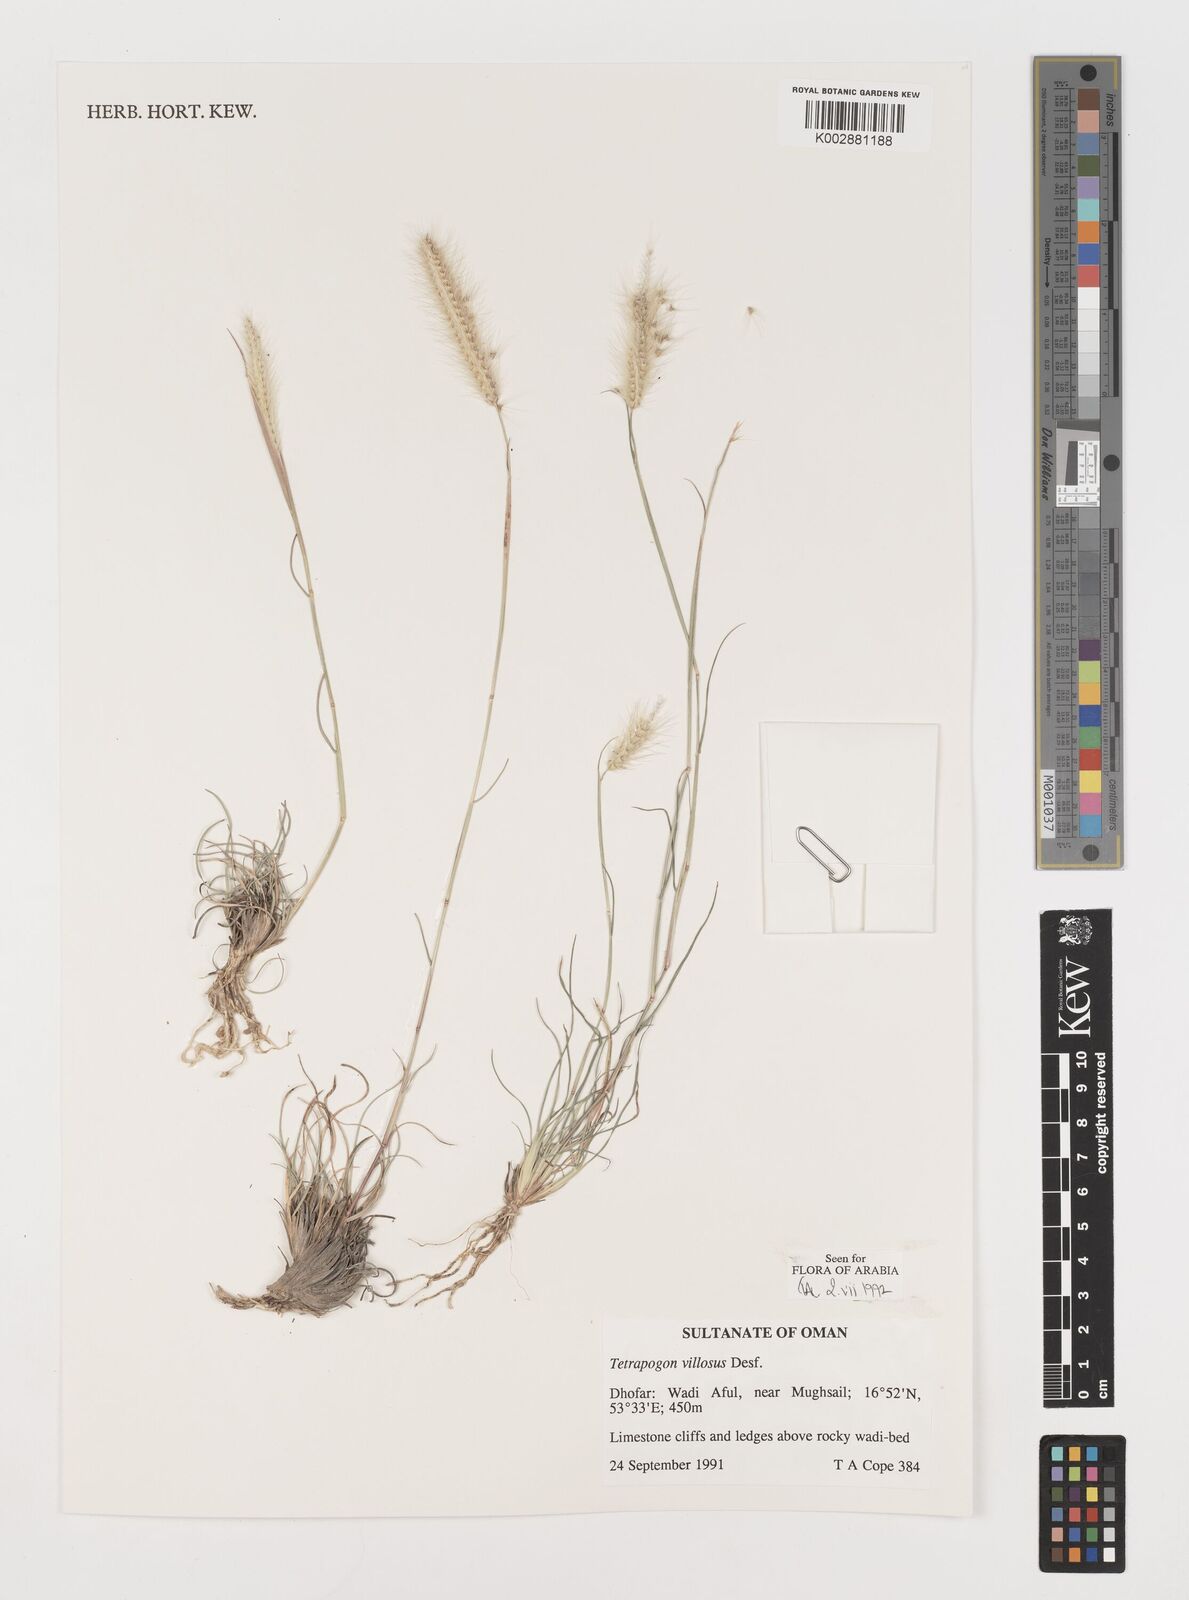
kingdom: Plantae
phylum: Tracheophyta
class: Liliopsida
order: Poales
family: Poaceae
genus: Tetrapogon
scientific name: Tetrapogon villosus
